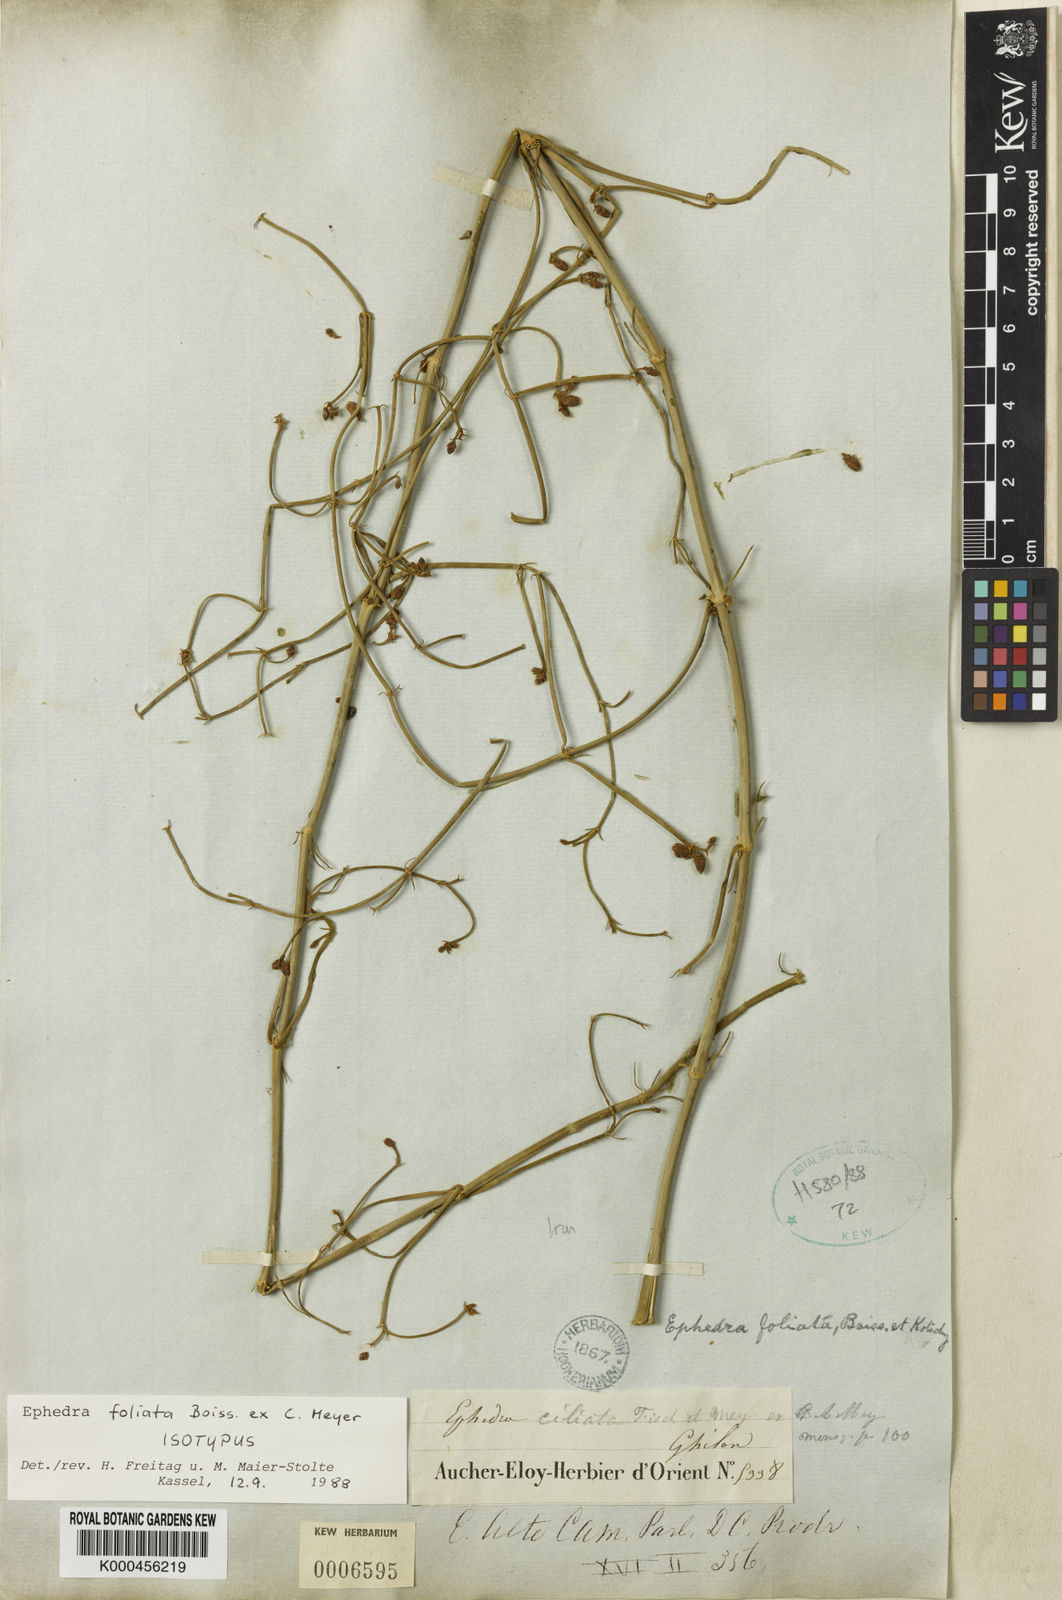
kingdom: Plantae
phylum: Tracheophyta
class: Gnetopsida
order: Ephedrales
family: Ephedraceae
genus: Ephedra
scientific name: Ephedra ciliata
